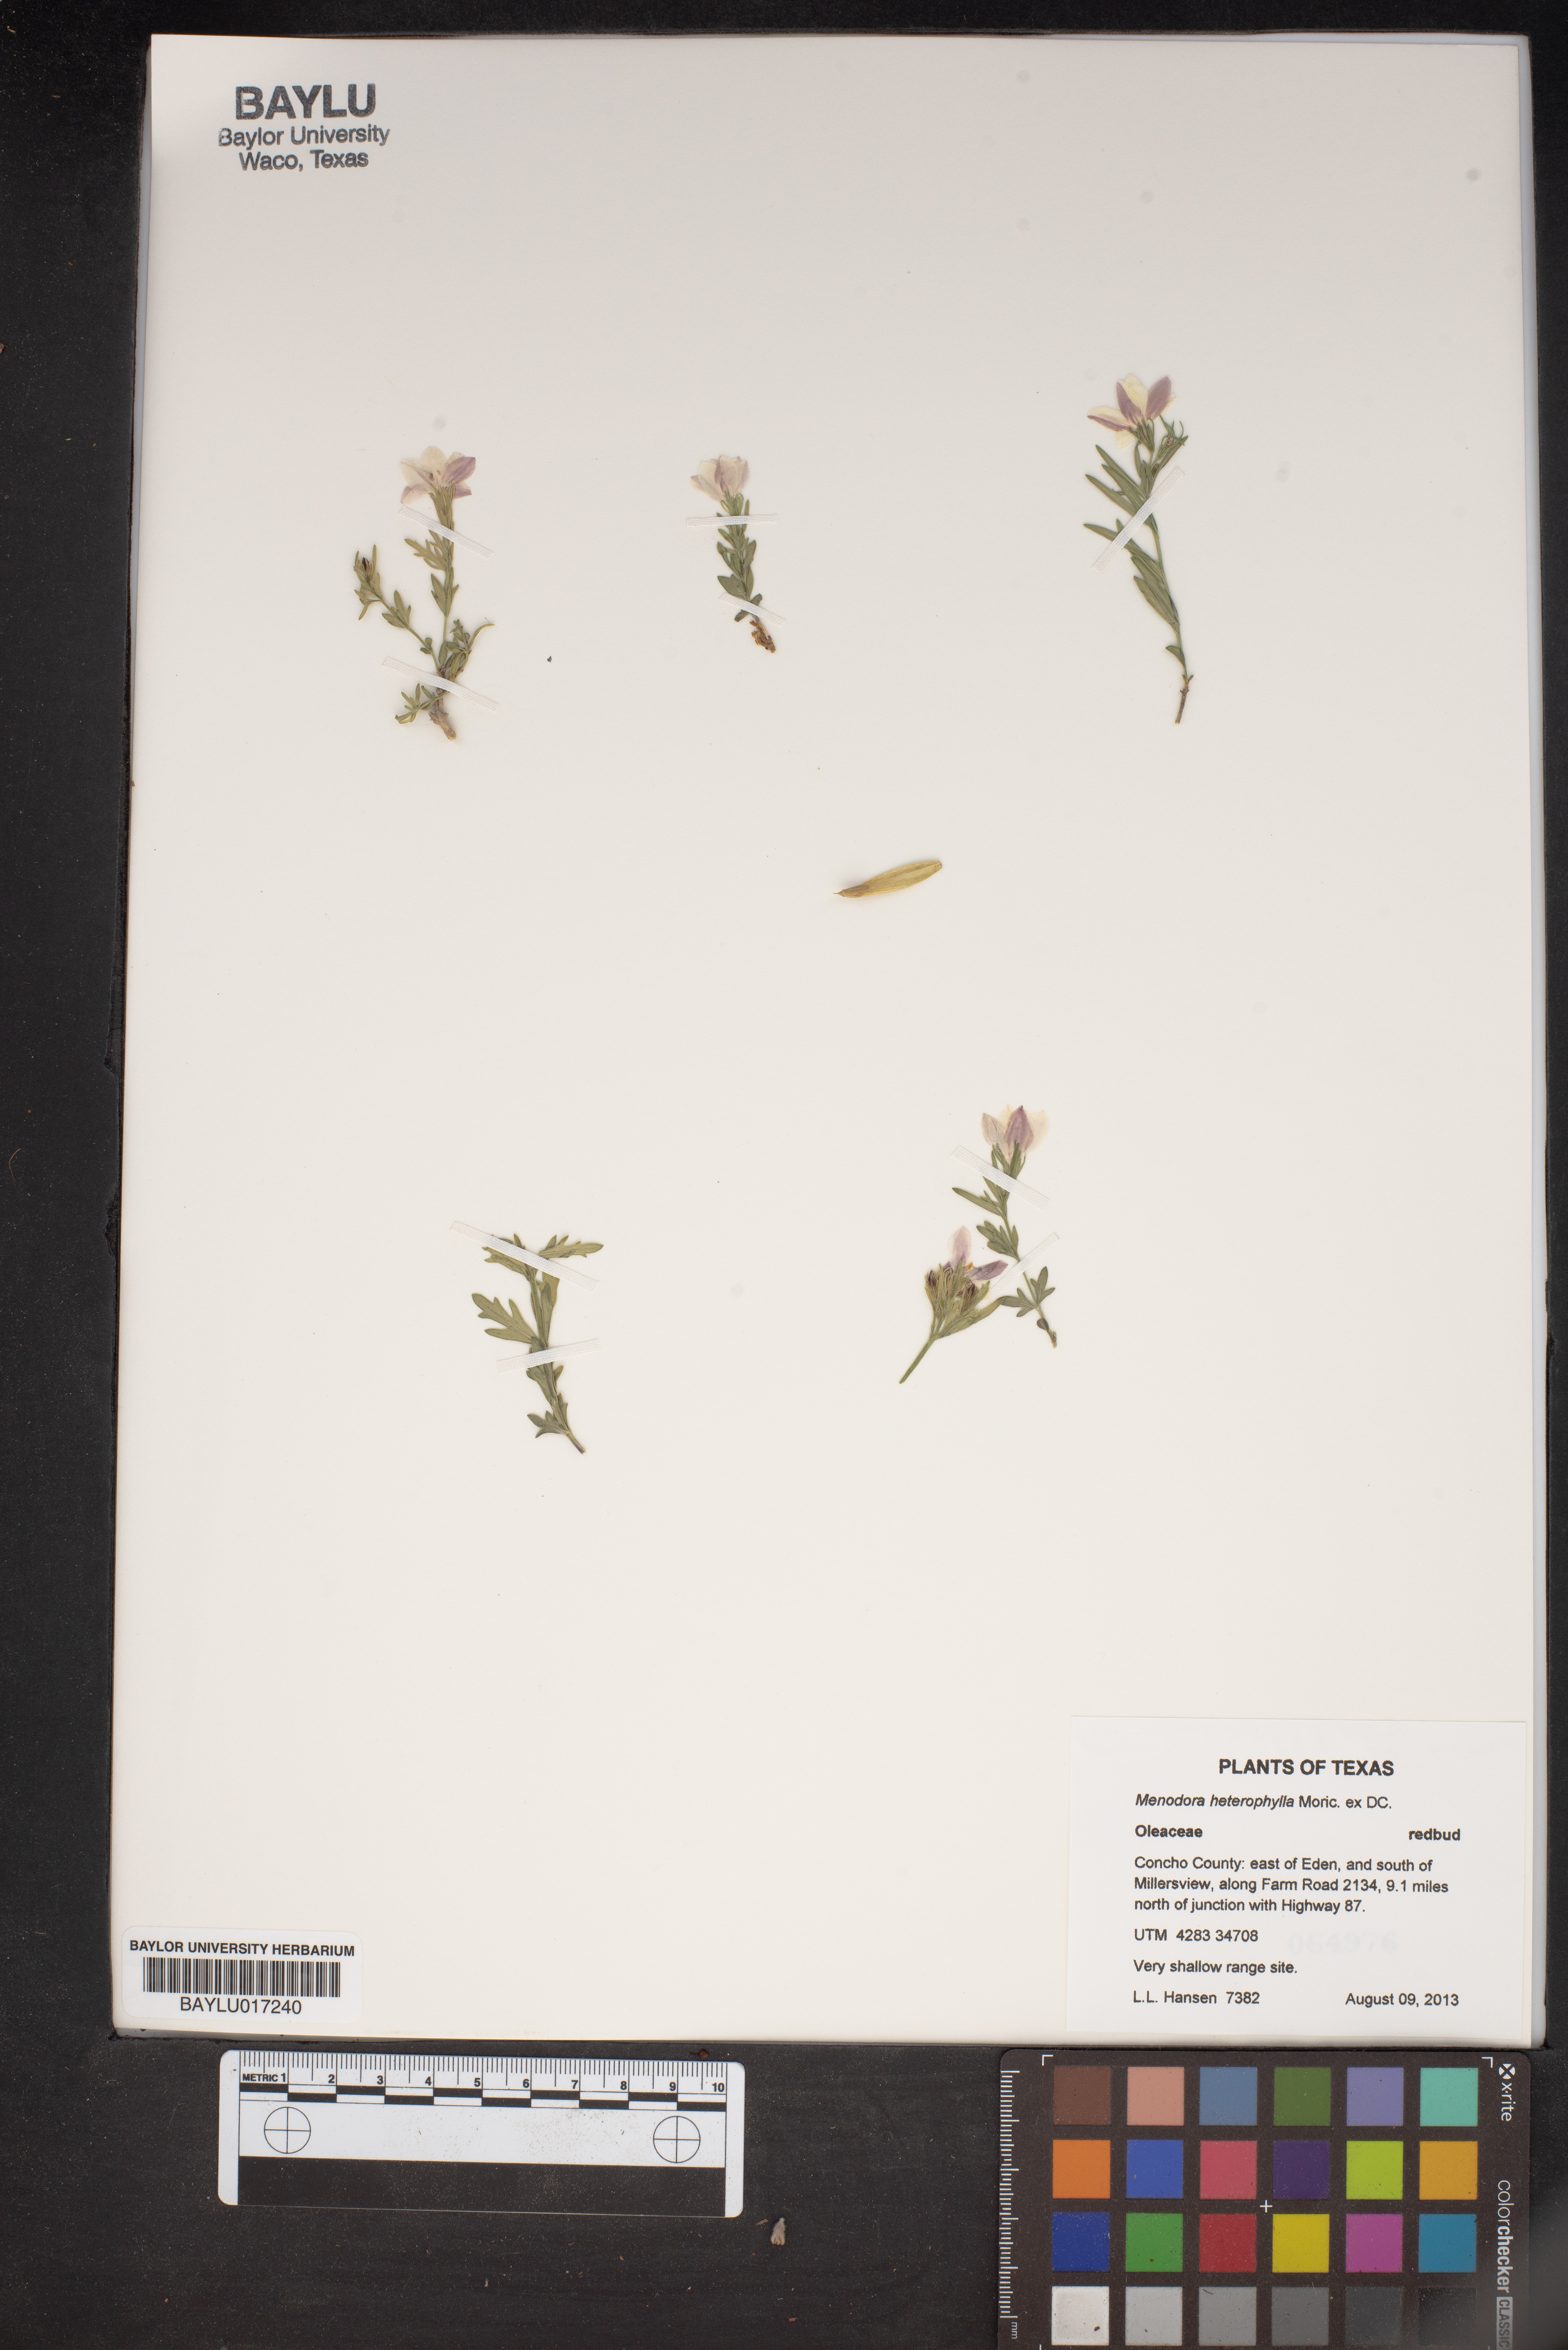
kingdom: Plantae
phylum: Tracheophyta
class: Magnoliopsida
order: Lamiales
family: Oleaceae
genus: Menodora
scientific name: Menodora heterophylla
